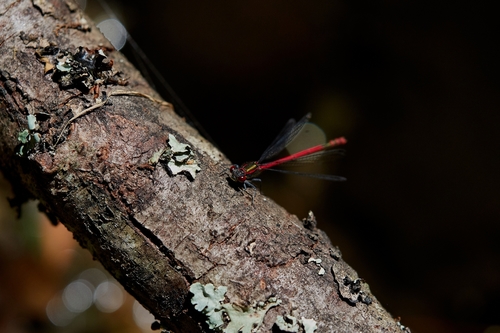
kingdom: Animalia
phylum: Arthropoda
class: Insecta
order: Odonata
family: Coenagrionidae
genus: Pyrrhosoma
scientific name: Pyrrhosoma nymphula
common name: Large red damsel
